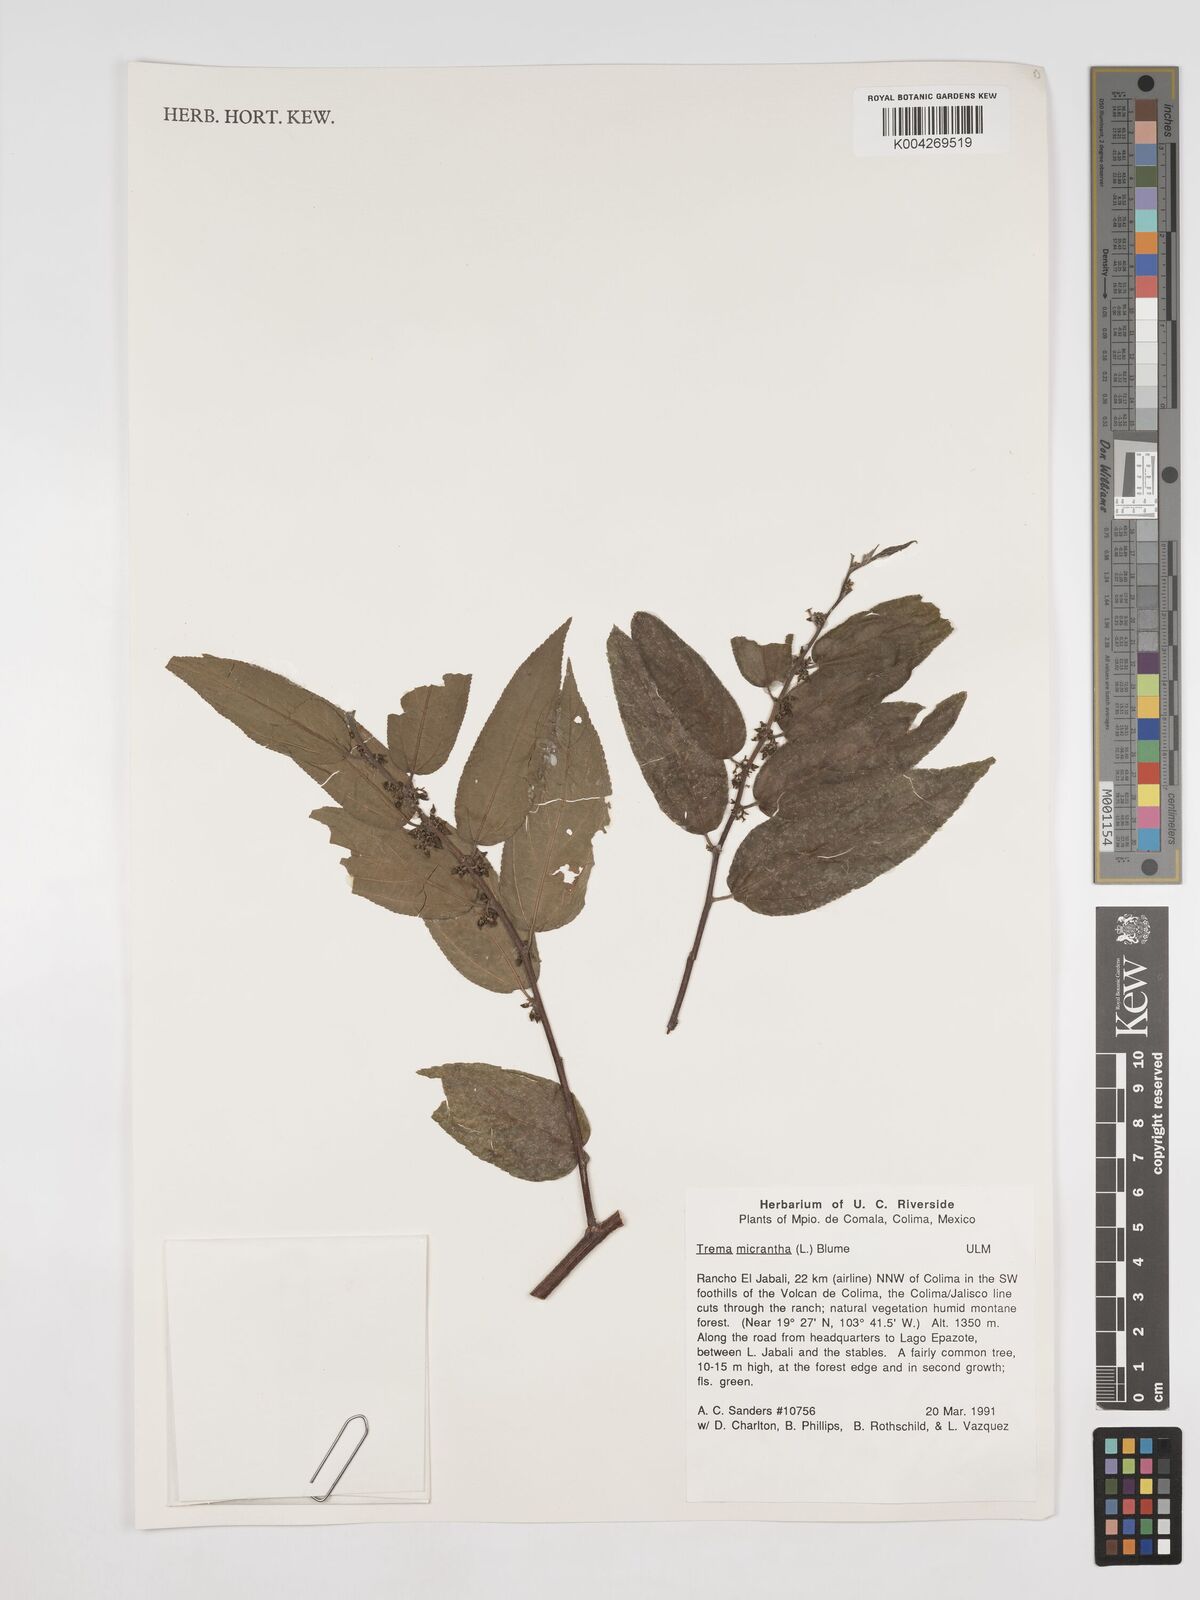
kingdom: Plantae
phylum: Tracheophyta
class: Magnoliopsida
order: Rosales
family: Cannabaceae
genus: Trema
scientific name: Trema micranthum
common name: Jamaican nettletree
